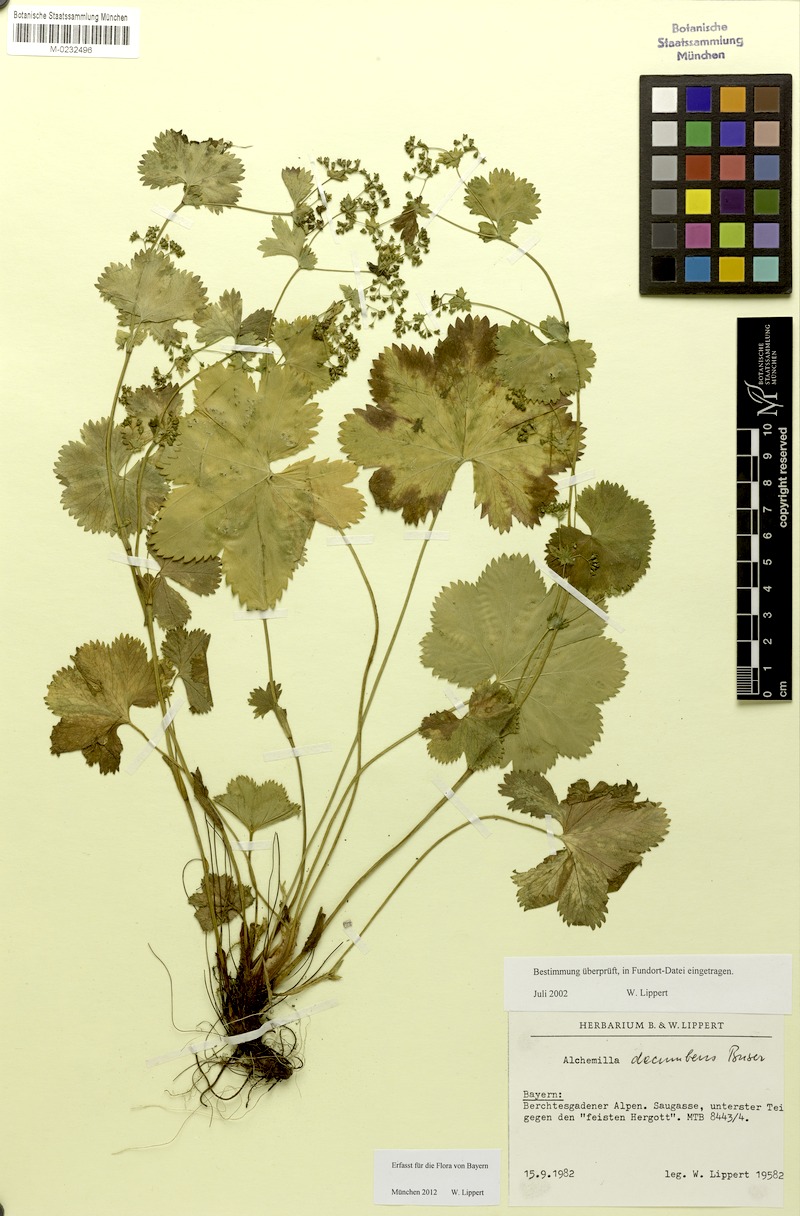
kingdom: Plantae
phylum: Tracheophyta
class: Magnoliopsida
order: Rosales
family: Rosaceae
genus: Alchemilla
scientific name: Alchemilla decumbens
